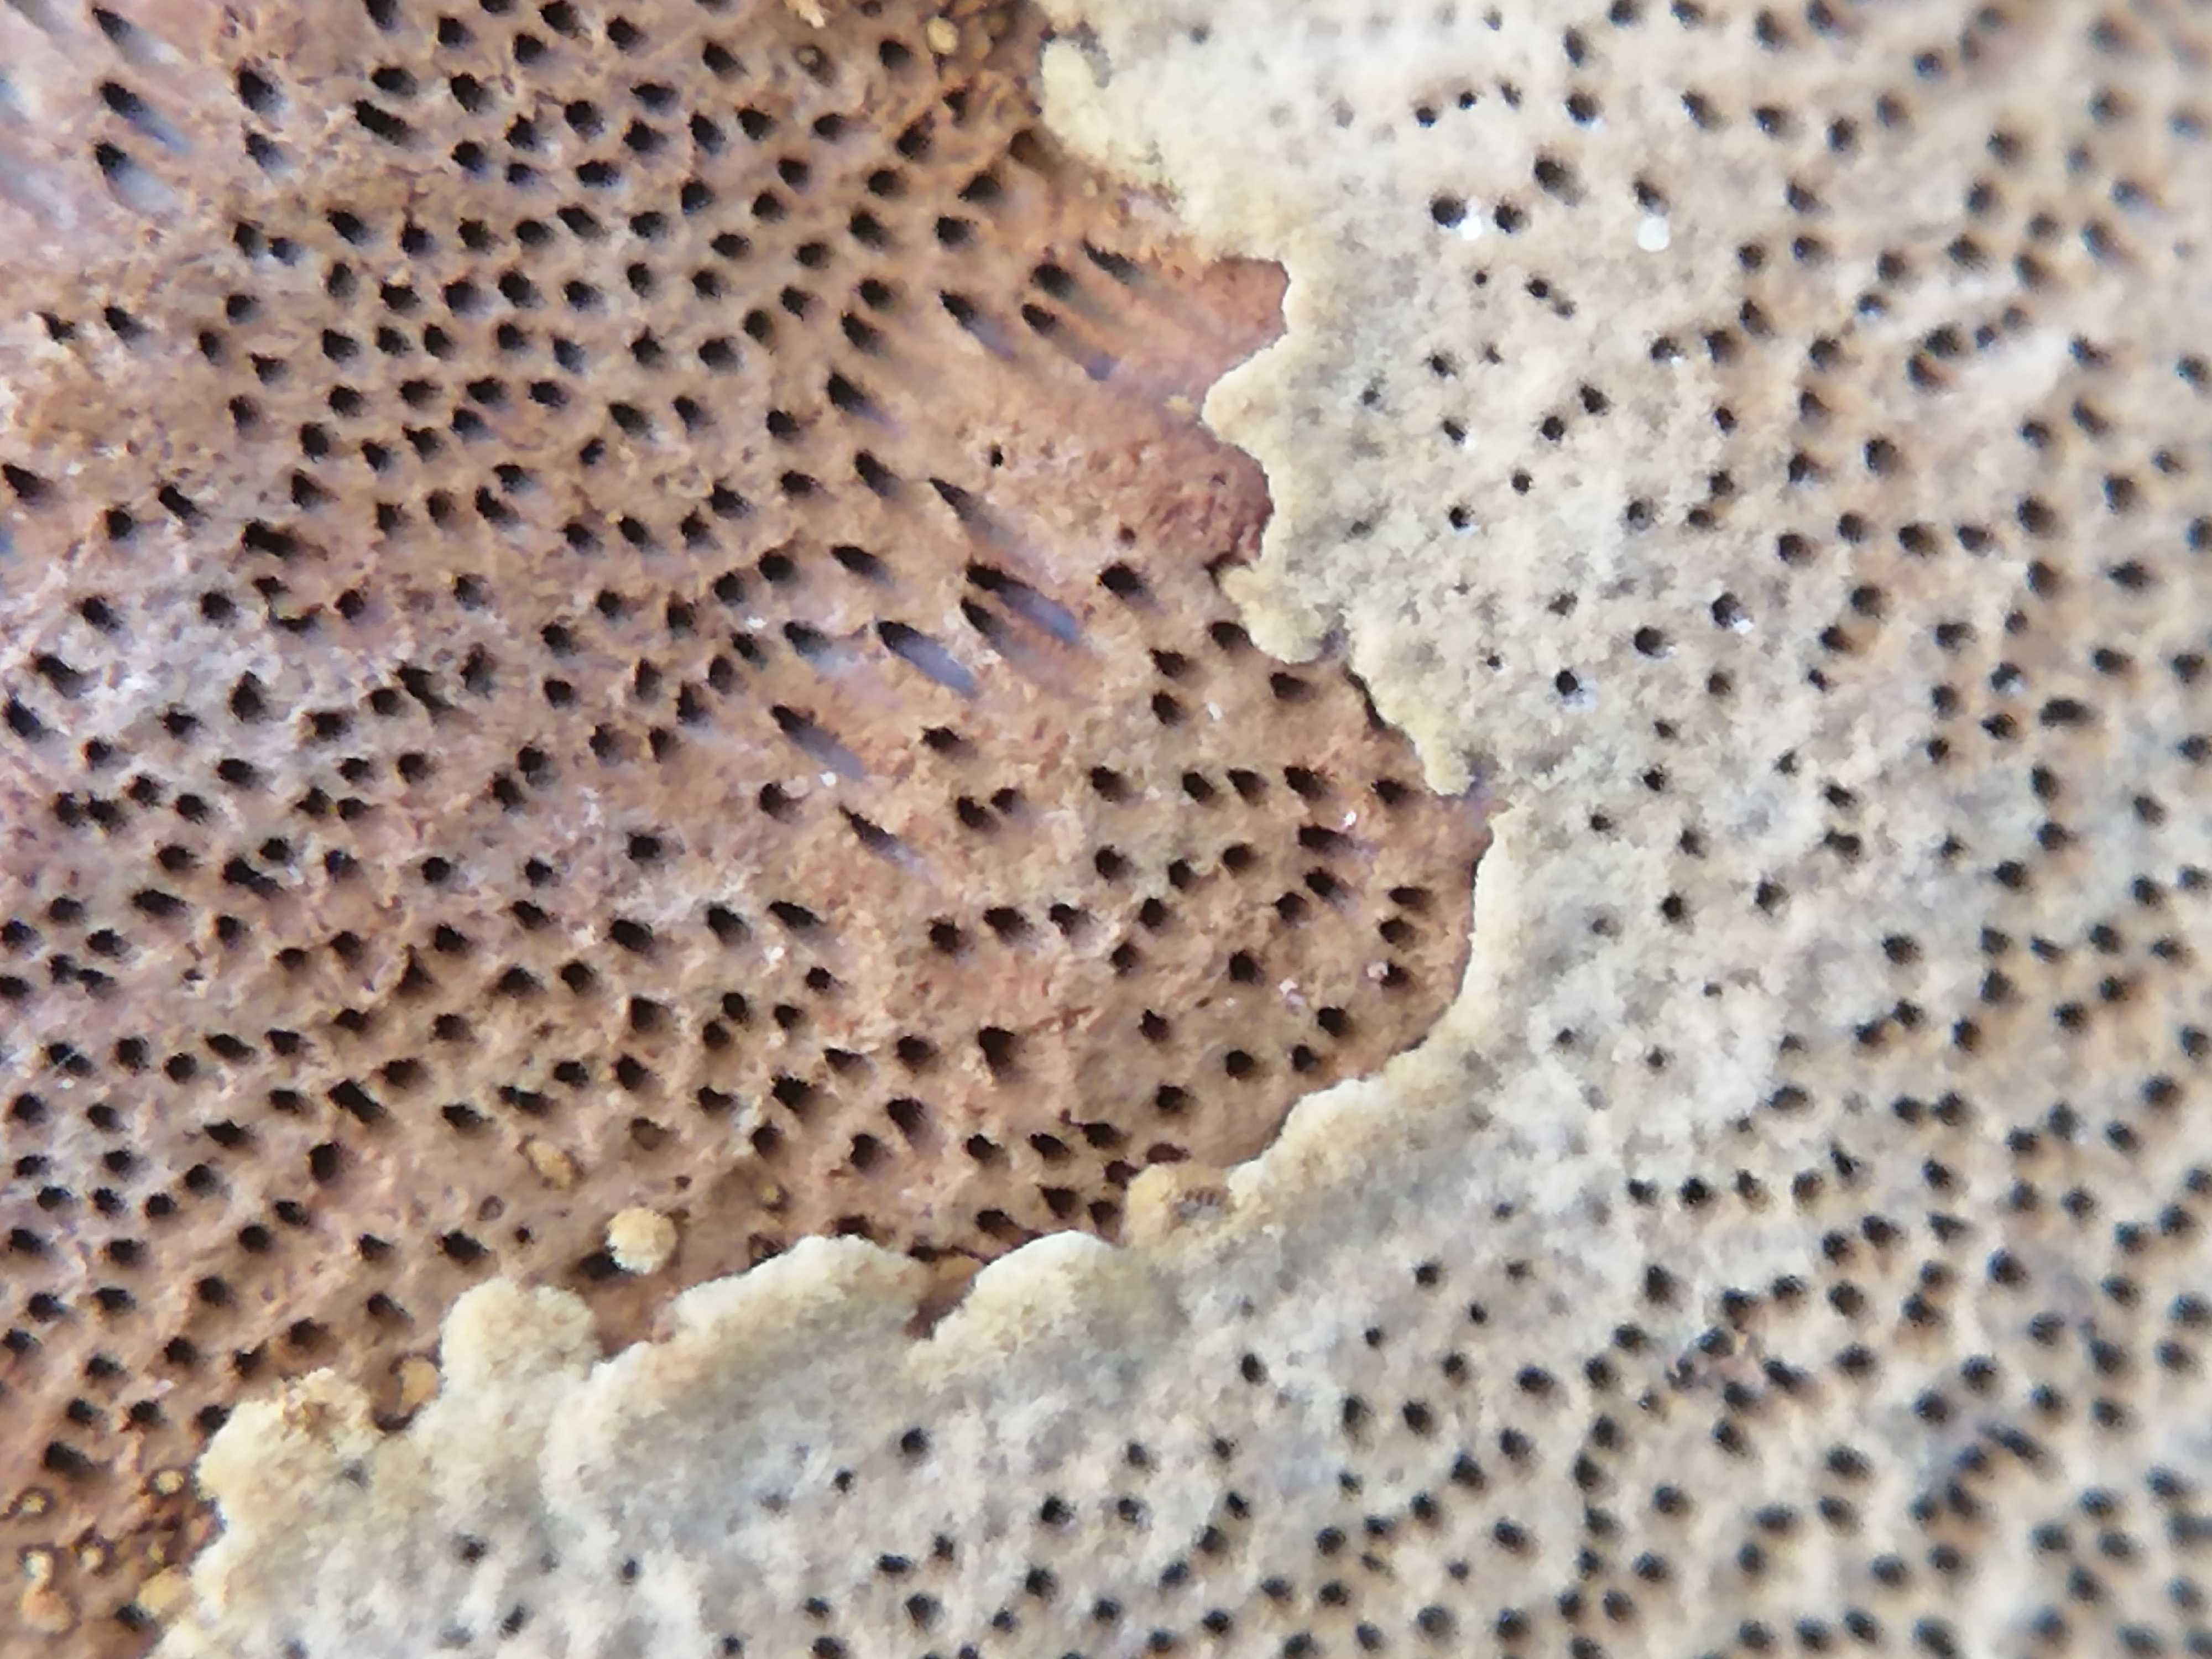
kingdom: Fungi
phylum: Basidiomycota
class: Agaricomycetes
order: Hymenochaetales
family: Hymenochaetaceae
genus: Phellinopsis
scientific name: Phellinopsis conchata
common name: pile-ildporesvamp
